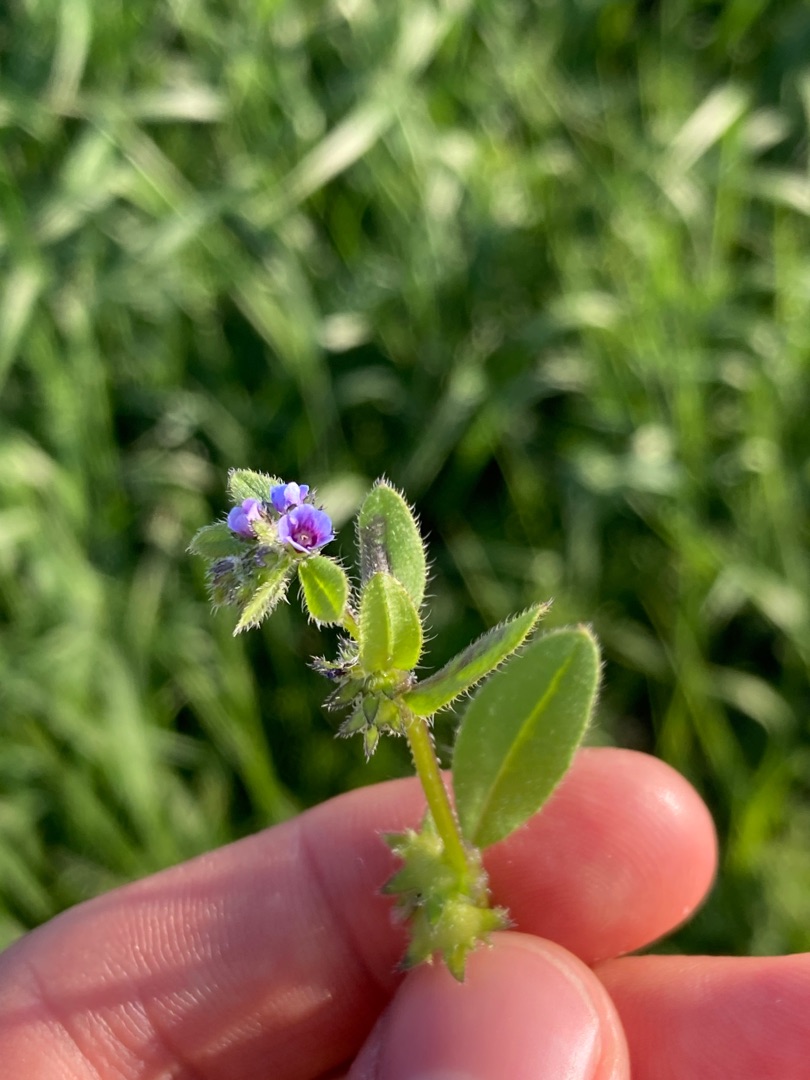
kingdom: Plantae
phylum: Tracheophyta
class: Magnoliopsida
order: Boraginales
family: Boraginaceae
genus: Asperugo
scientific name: Asperugo procumbens
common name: River
